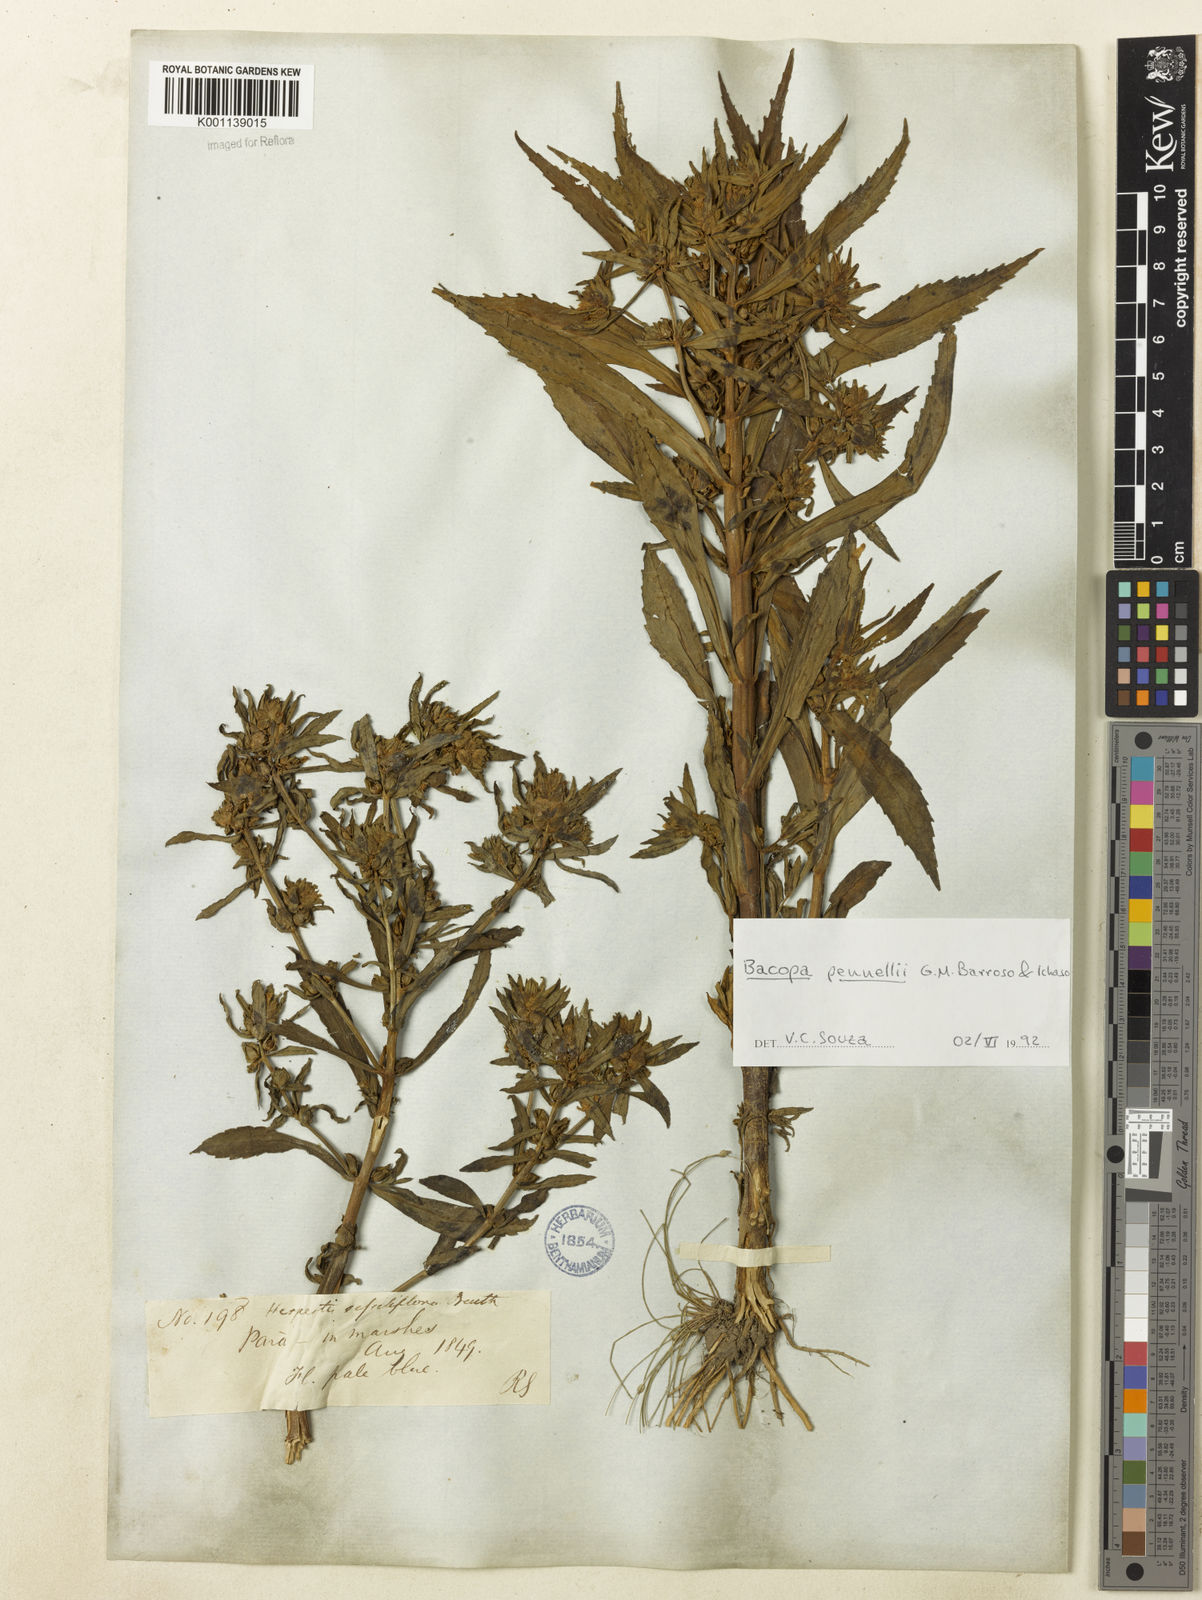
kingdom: Plantae
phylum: Tracheophyta
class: Magnoliopsida
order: Lamiales
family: Plantaginaceae
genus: Bacopa
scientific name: Bacopa pennellii
